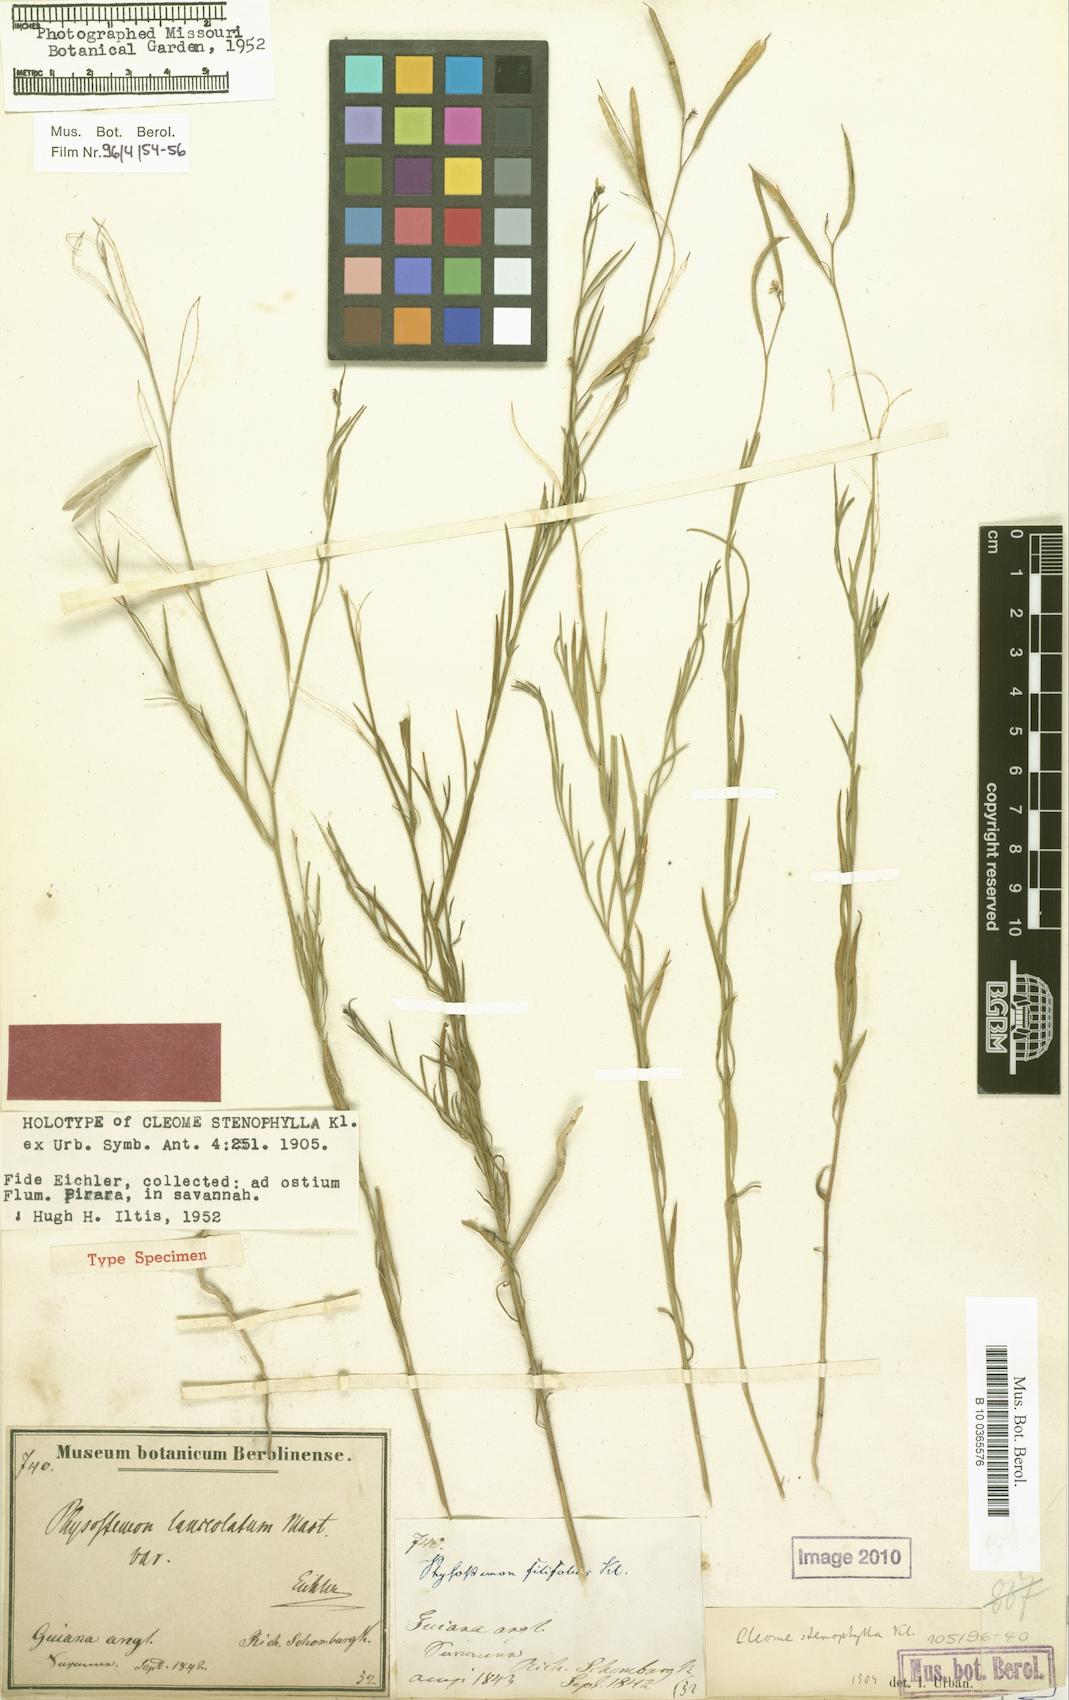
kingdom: Plantae
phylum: Tracheophyta
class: Magnoliopsida
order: Brassicales
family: Cleomaceae
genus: Physostemon
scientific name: Physostemon stenophyllus
